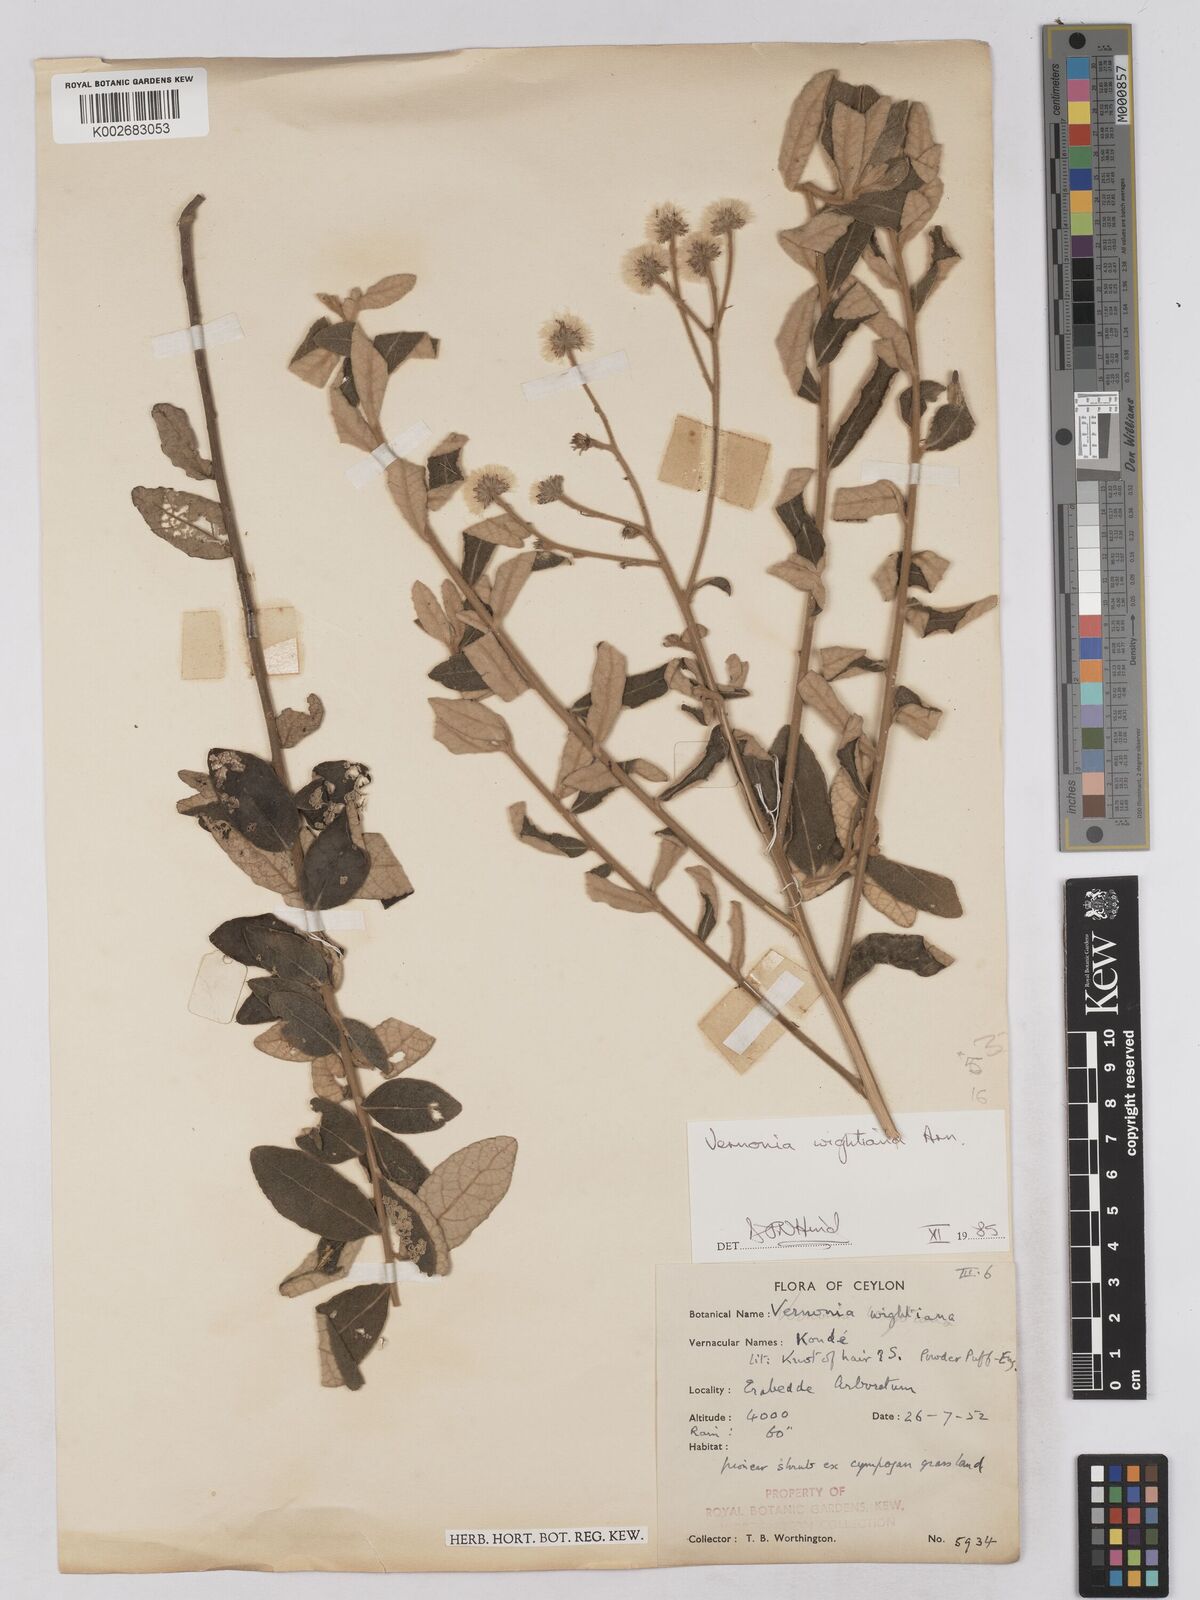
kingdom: Plantae
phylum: Tracheophyta
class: Magnoliopsida
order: Asterales
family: Asteraceae
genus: Uniyala
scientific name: Uniyala wightiana
